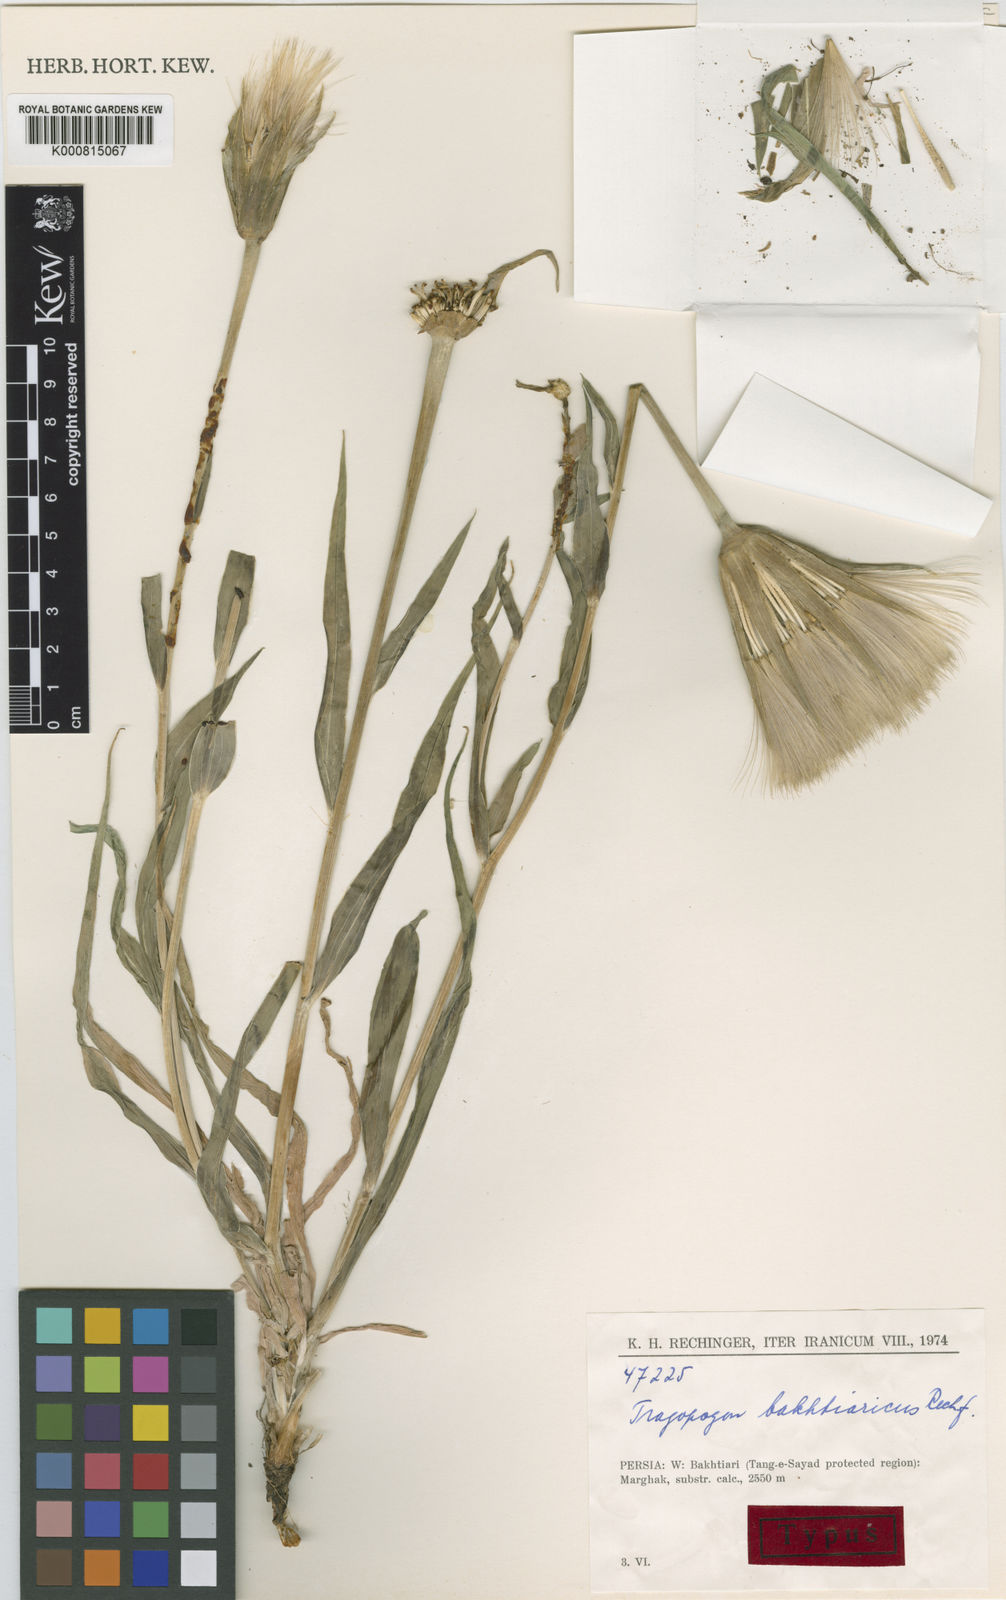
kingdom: Plantae
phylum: Tracheophyta
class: Magnoliopsida
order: Asterales
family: Asteraceae
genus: Tragopogon
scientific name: Tragopogon bakhtiaricus
